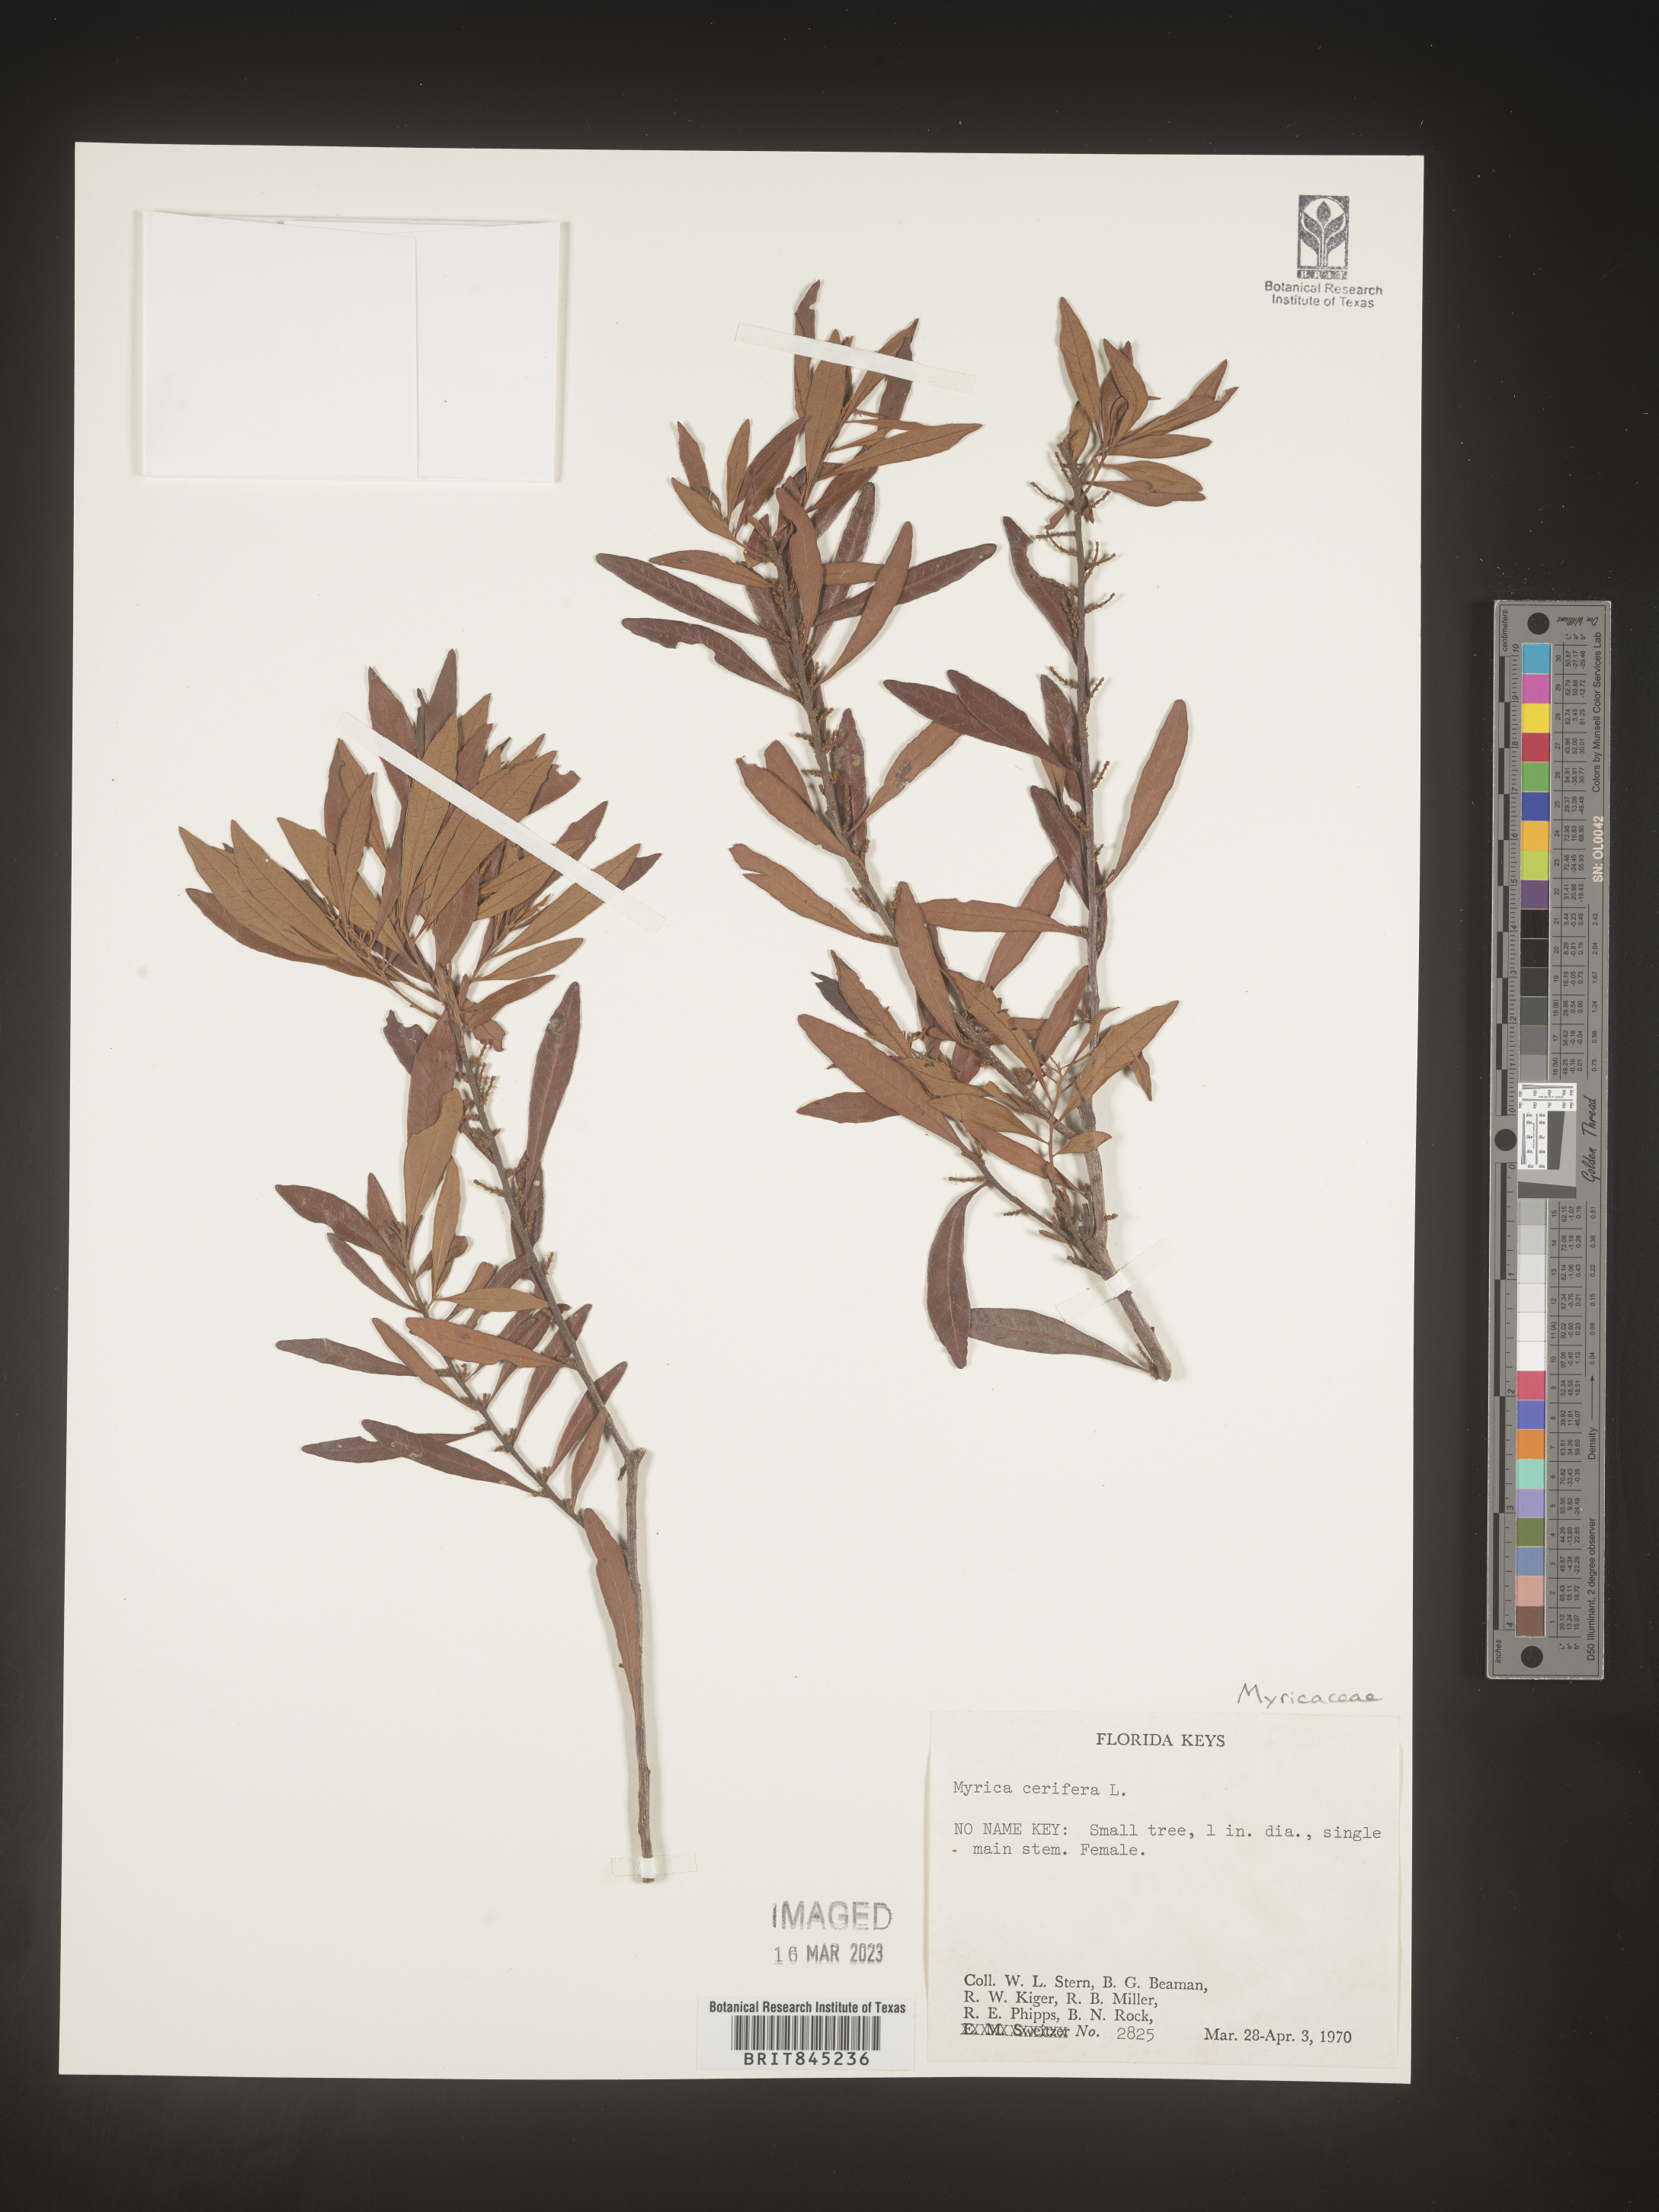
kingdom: Plantae
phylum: Tracheophyta
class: Magnoliopsida
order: Fagales
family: Myricaceae
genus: Morella
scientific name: Morella cerifera
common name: Wax myrtle
